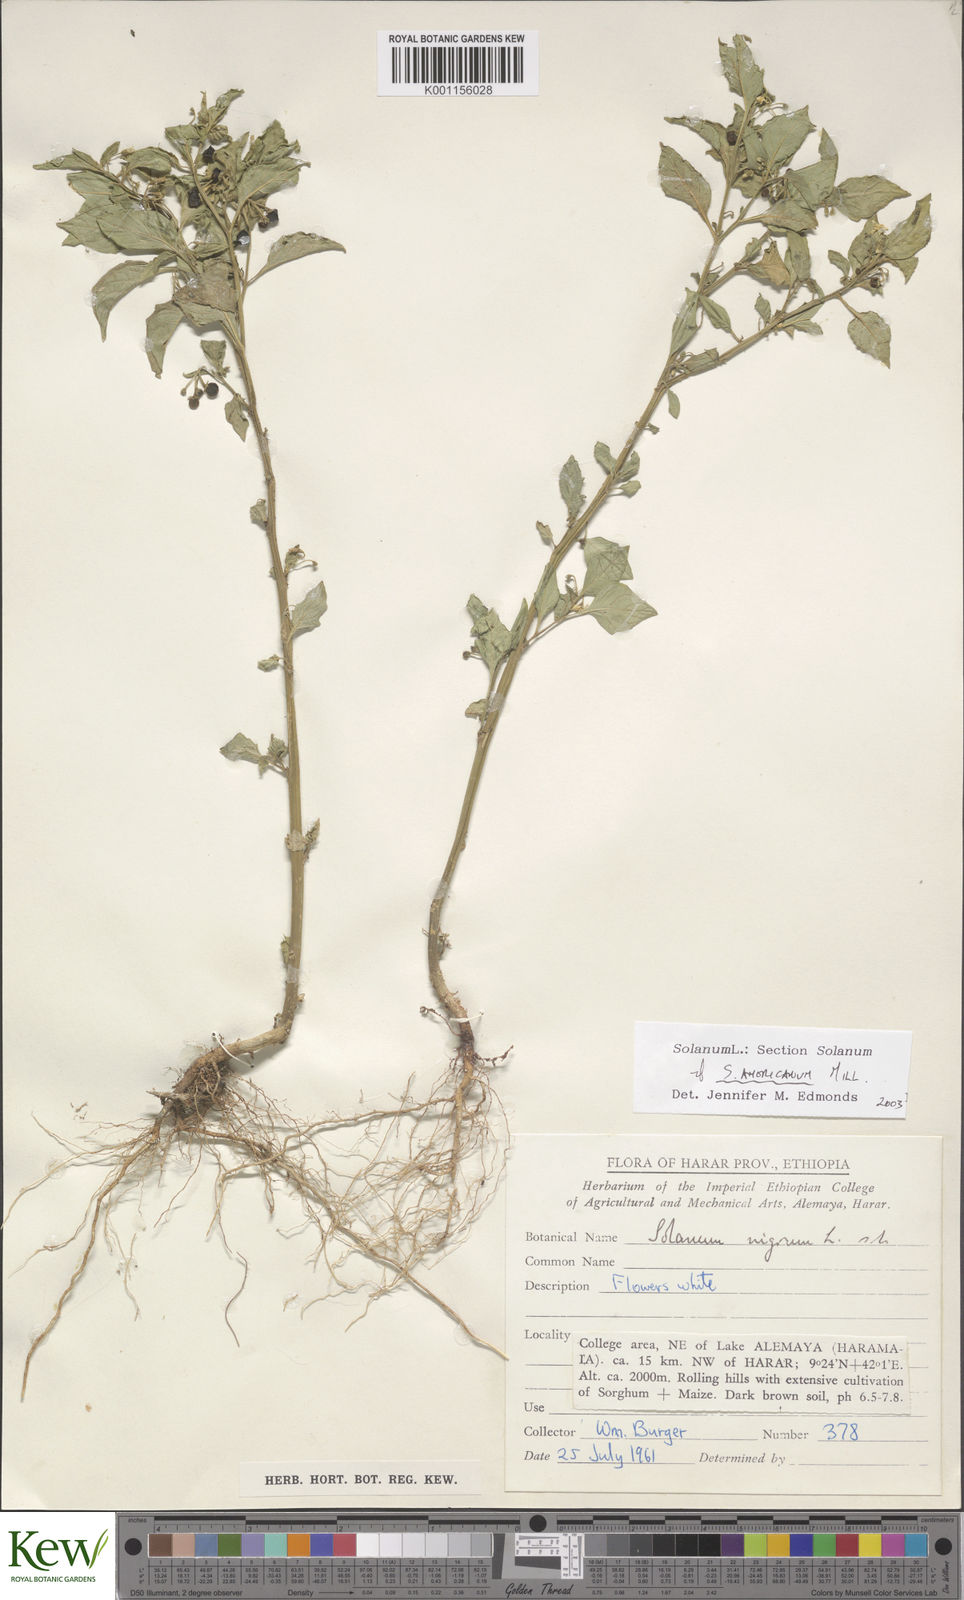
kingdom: Plantae
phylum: Tracheophyta
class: Magnoliopsida
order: Solanales
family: Solanaceae
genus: Solanum
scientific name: Solanum villosum
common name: Red nightshade
